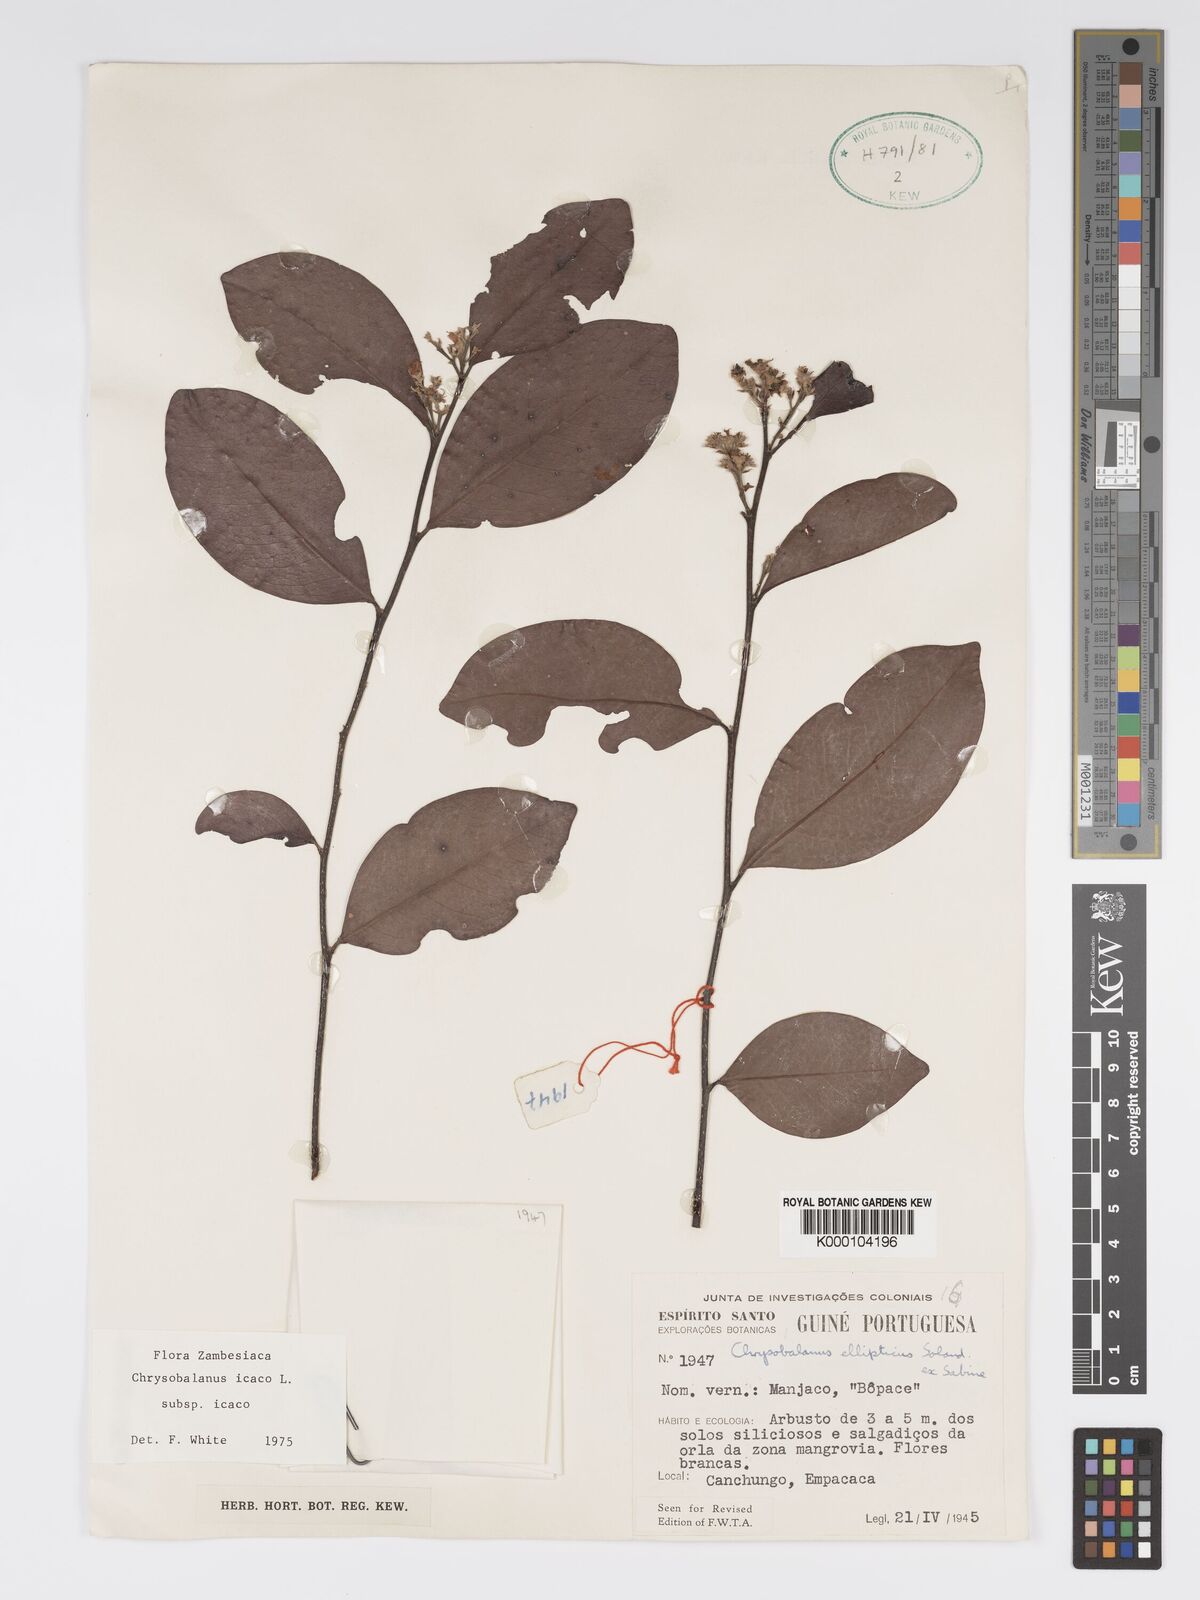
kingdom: Plantae
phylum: Tracheophyta
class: Magnoliopsida
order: Malpighiales
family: Chrysobalanaceae
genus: Chrysobalanus
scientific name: Chrysobalanus icaco
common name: Coco plum
